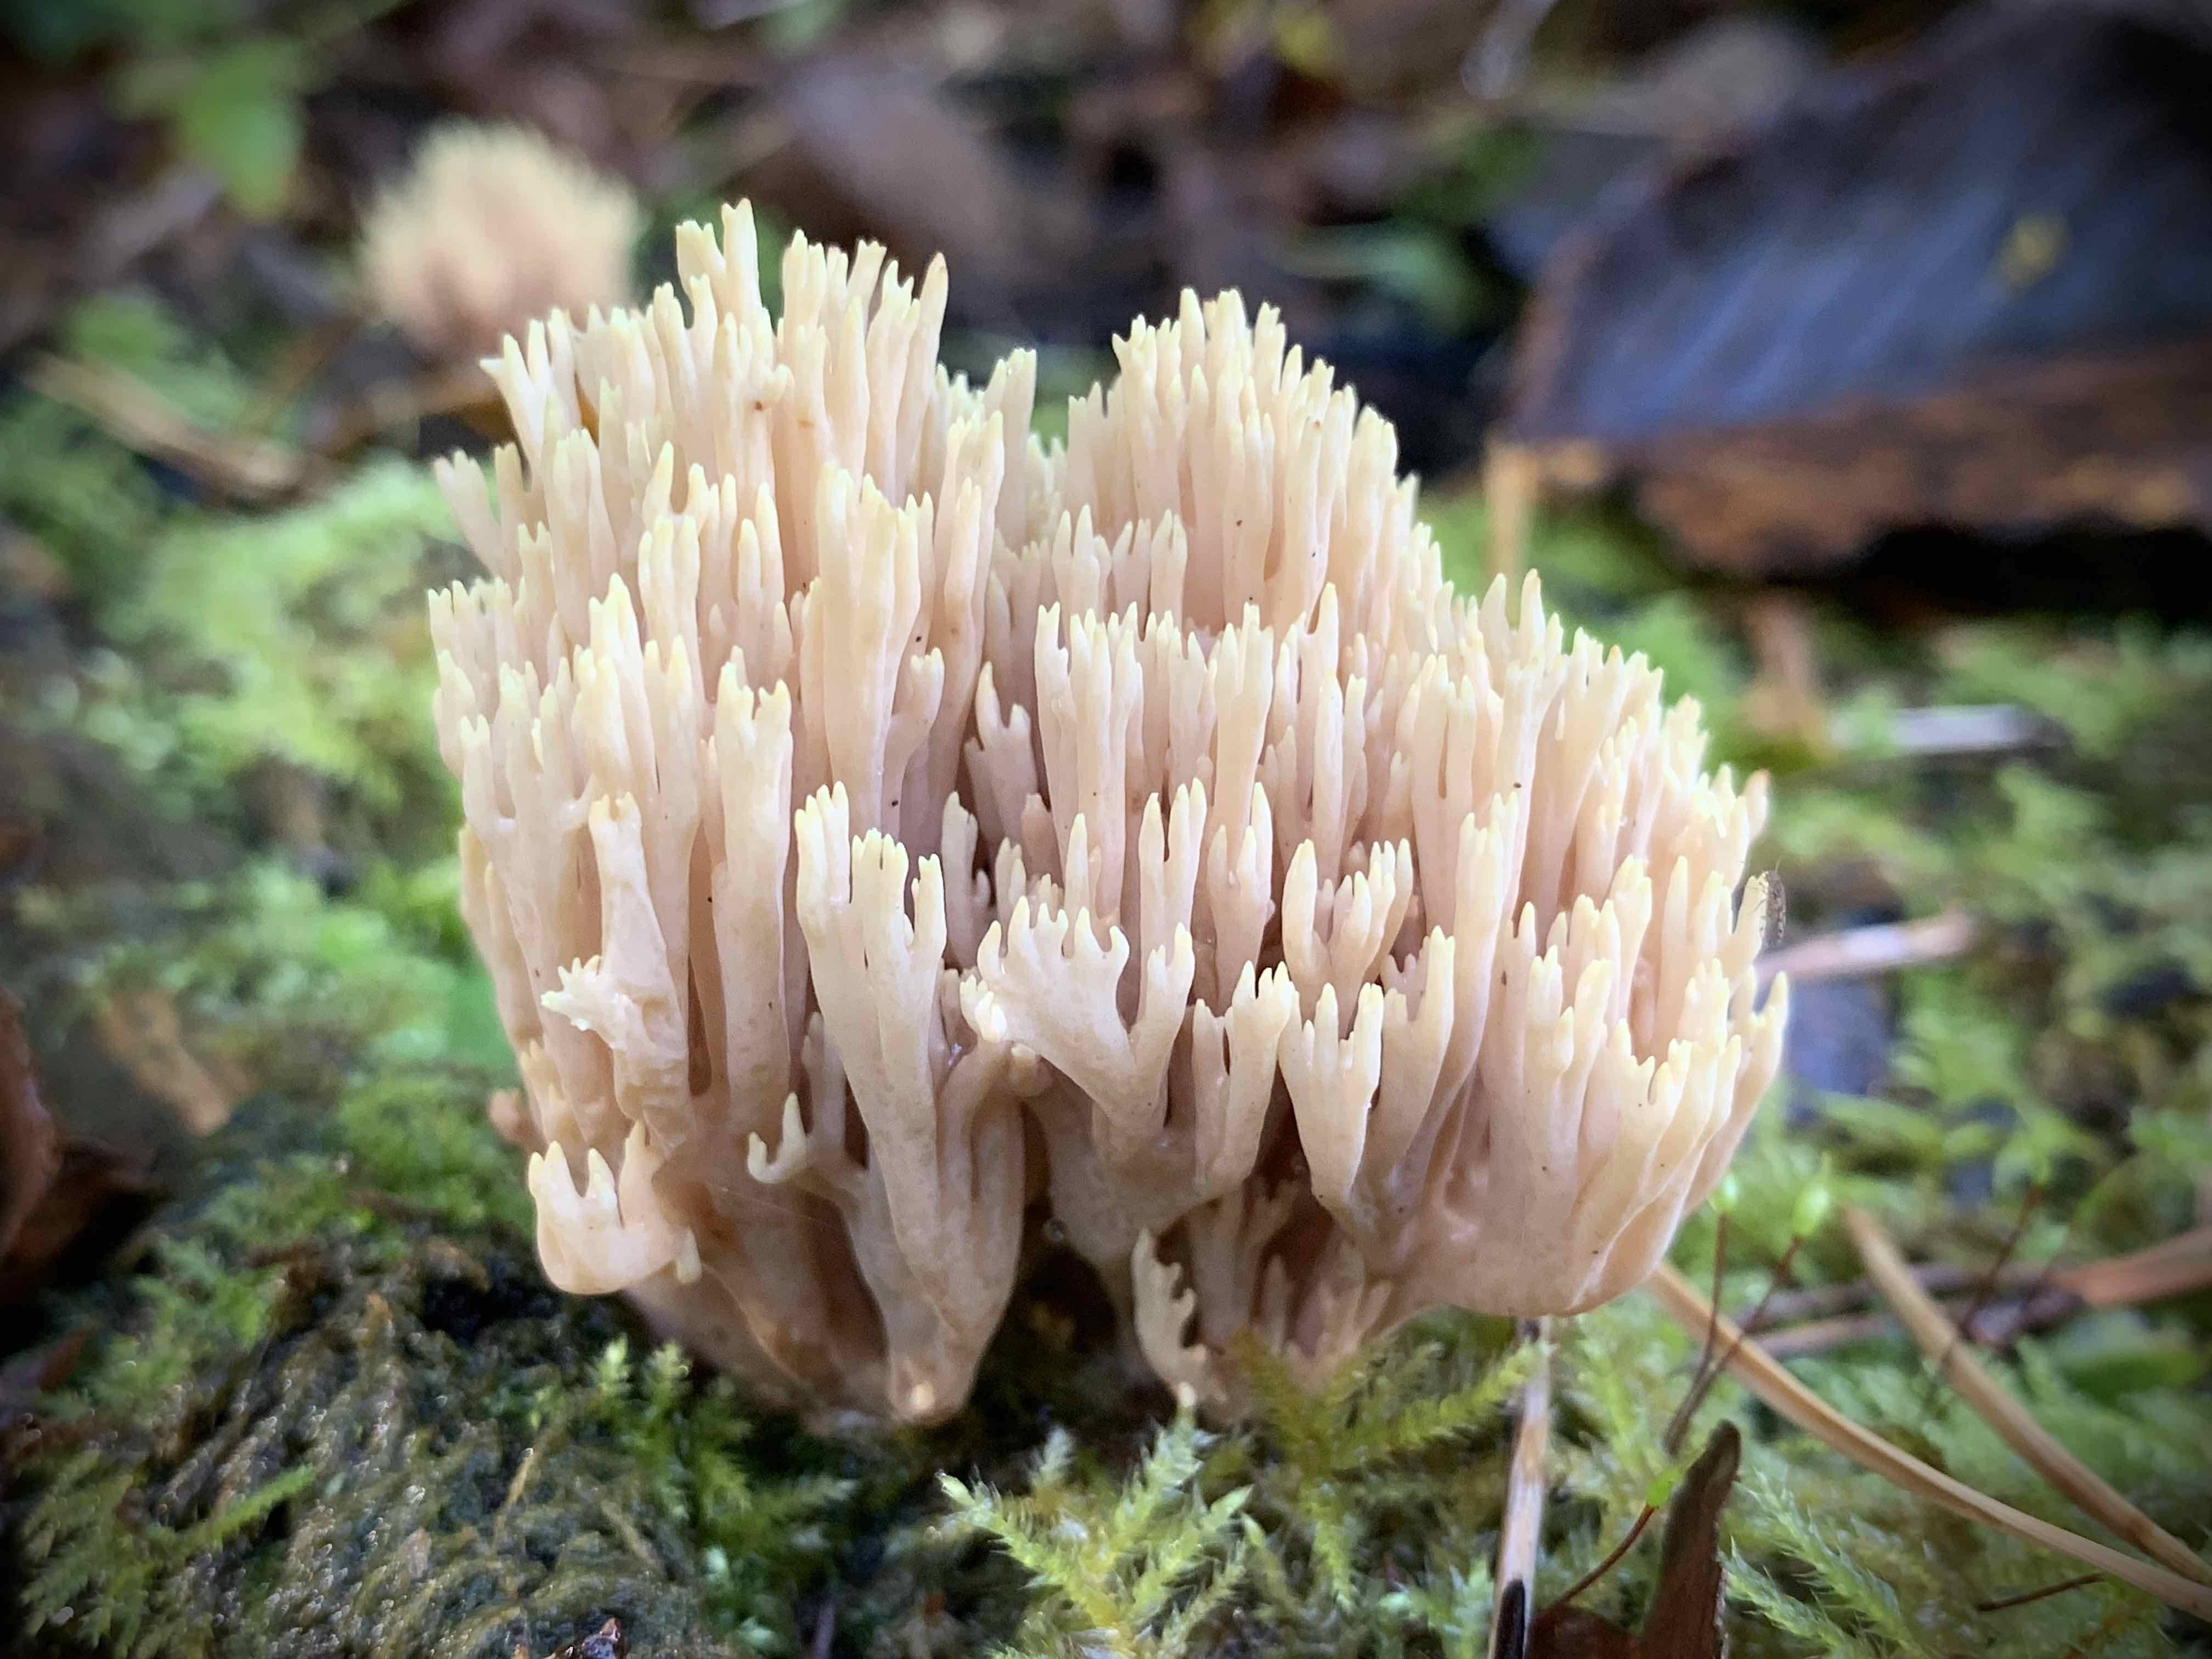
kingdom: Fungi
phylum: Basidiomycota
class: Agaricomycetes
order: Gomphales
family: Gomphaceae
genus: Ramaria
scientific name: Ramaria stricta
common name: rank koralsvamp
